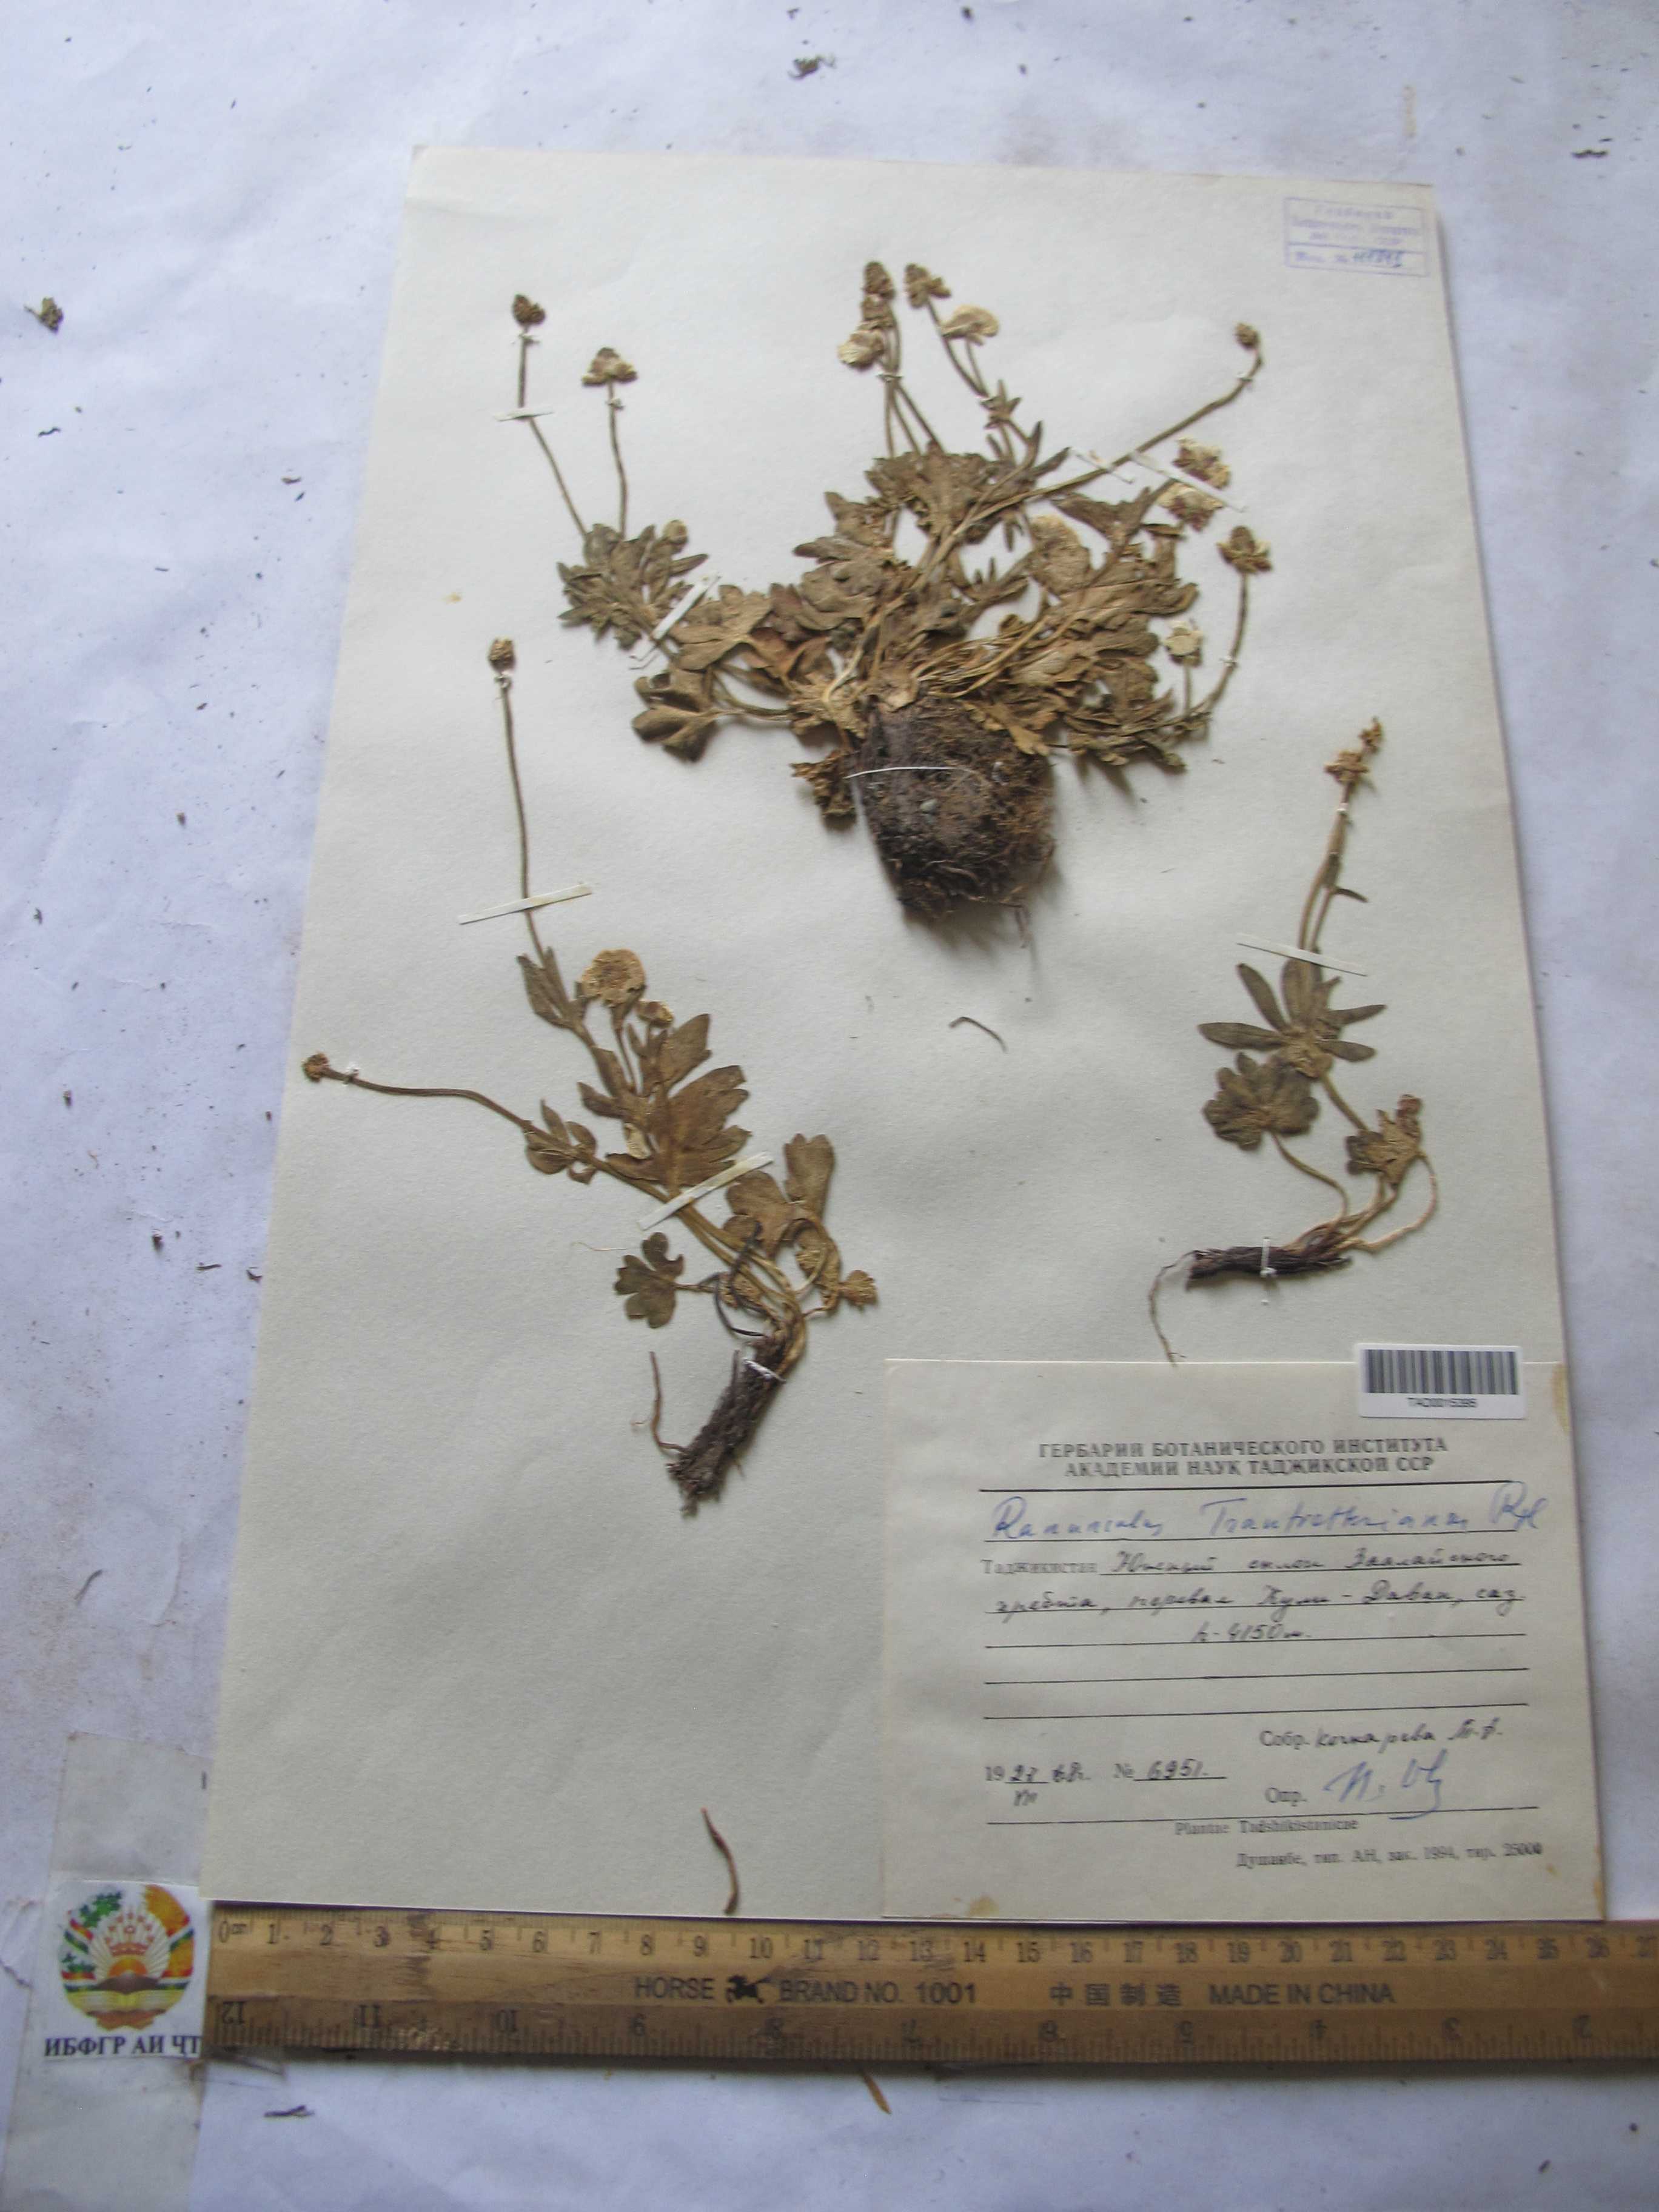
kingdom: Plantae
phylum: Tracheophyta
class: Magnoliopsida
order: Ranunculales
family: Ranunculaceae
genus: Ranunculus
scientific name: Ranunculus songaricus
